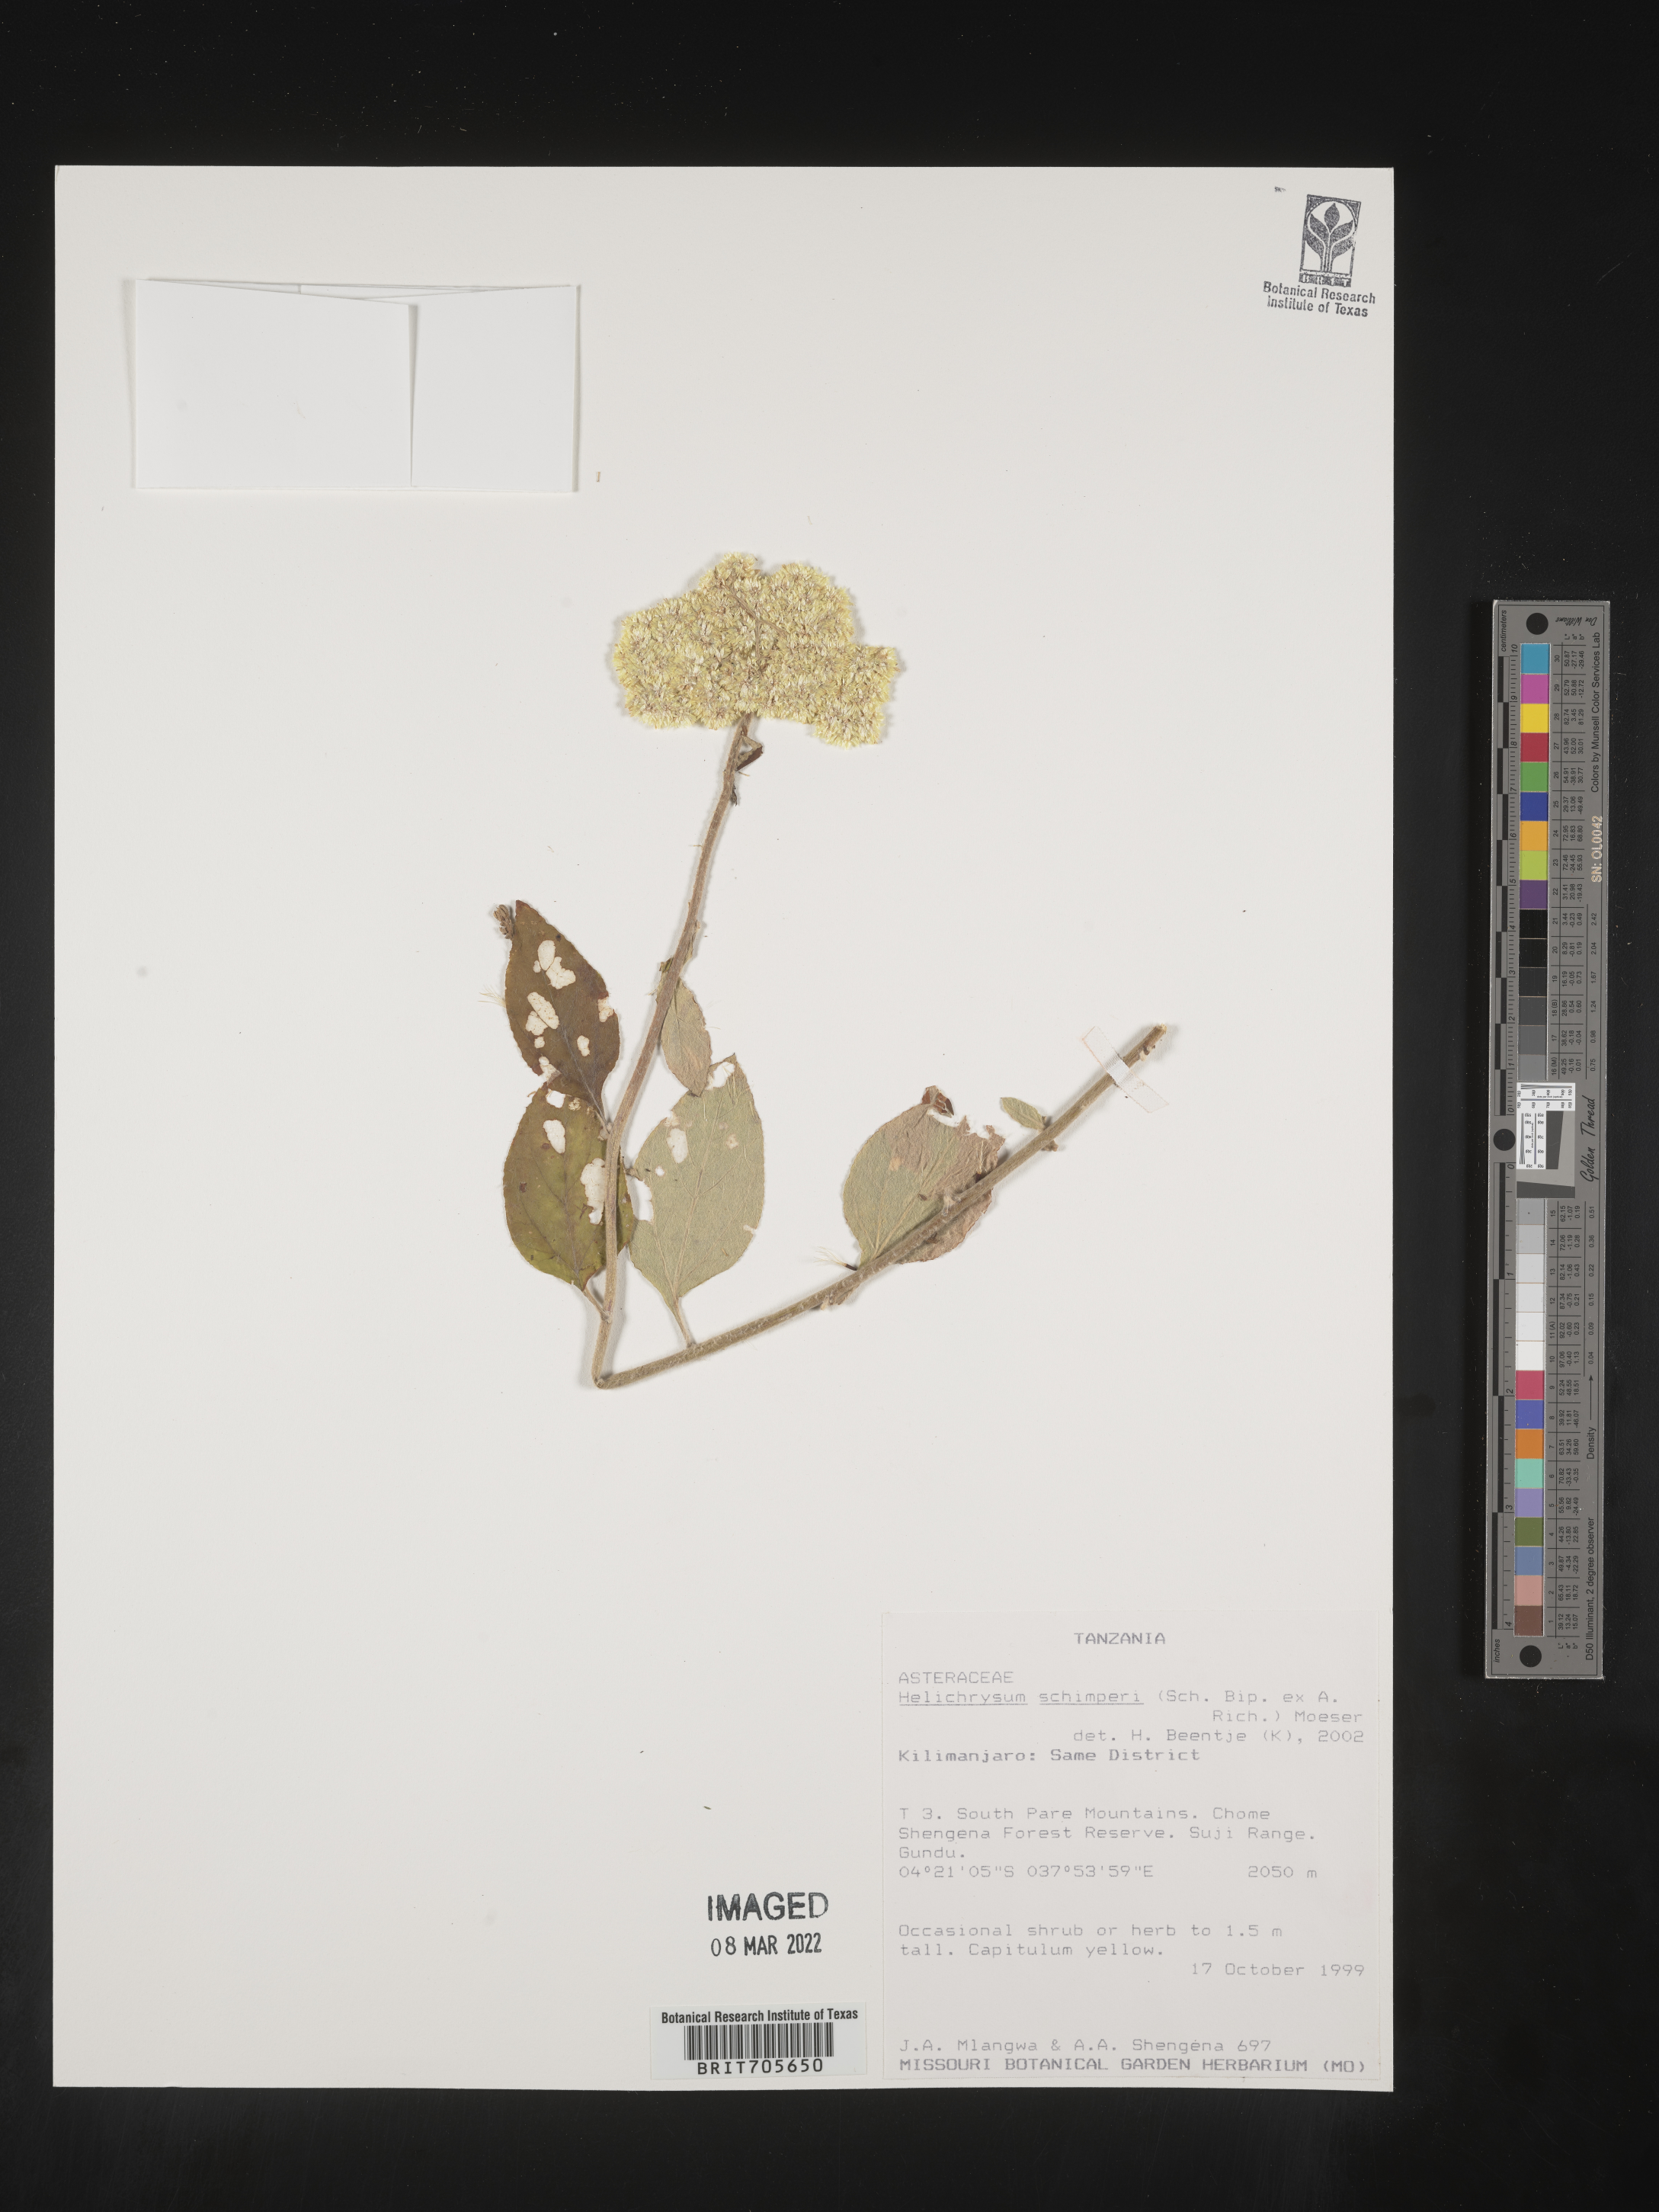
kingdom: Plantae
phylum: Tracheophyta
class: Magnoliopsida
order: Asterales
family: Asteraceae
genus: Helichrysum
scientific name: Helichrysum
